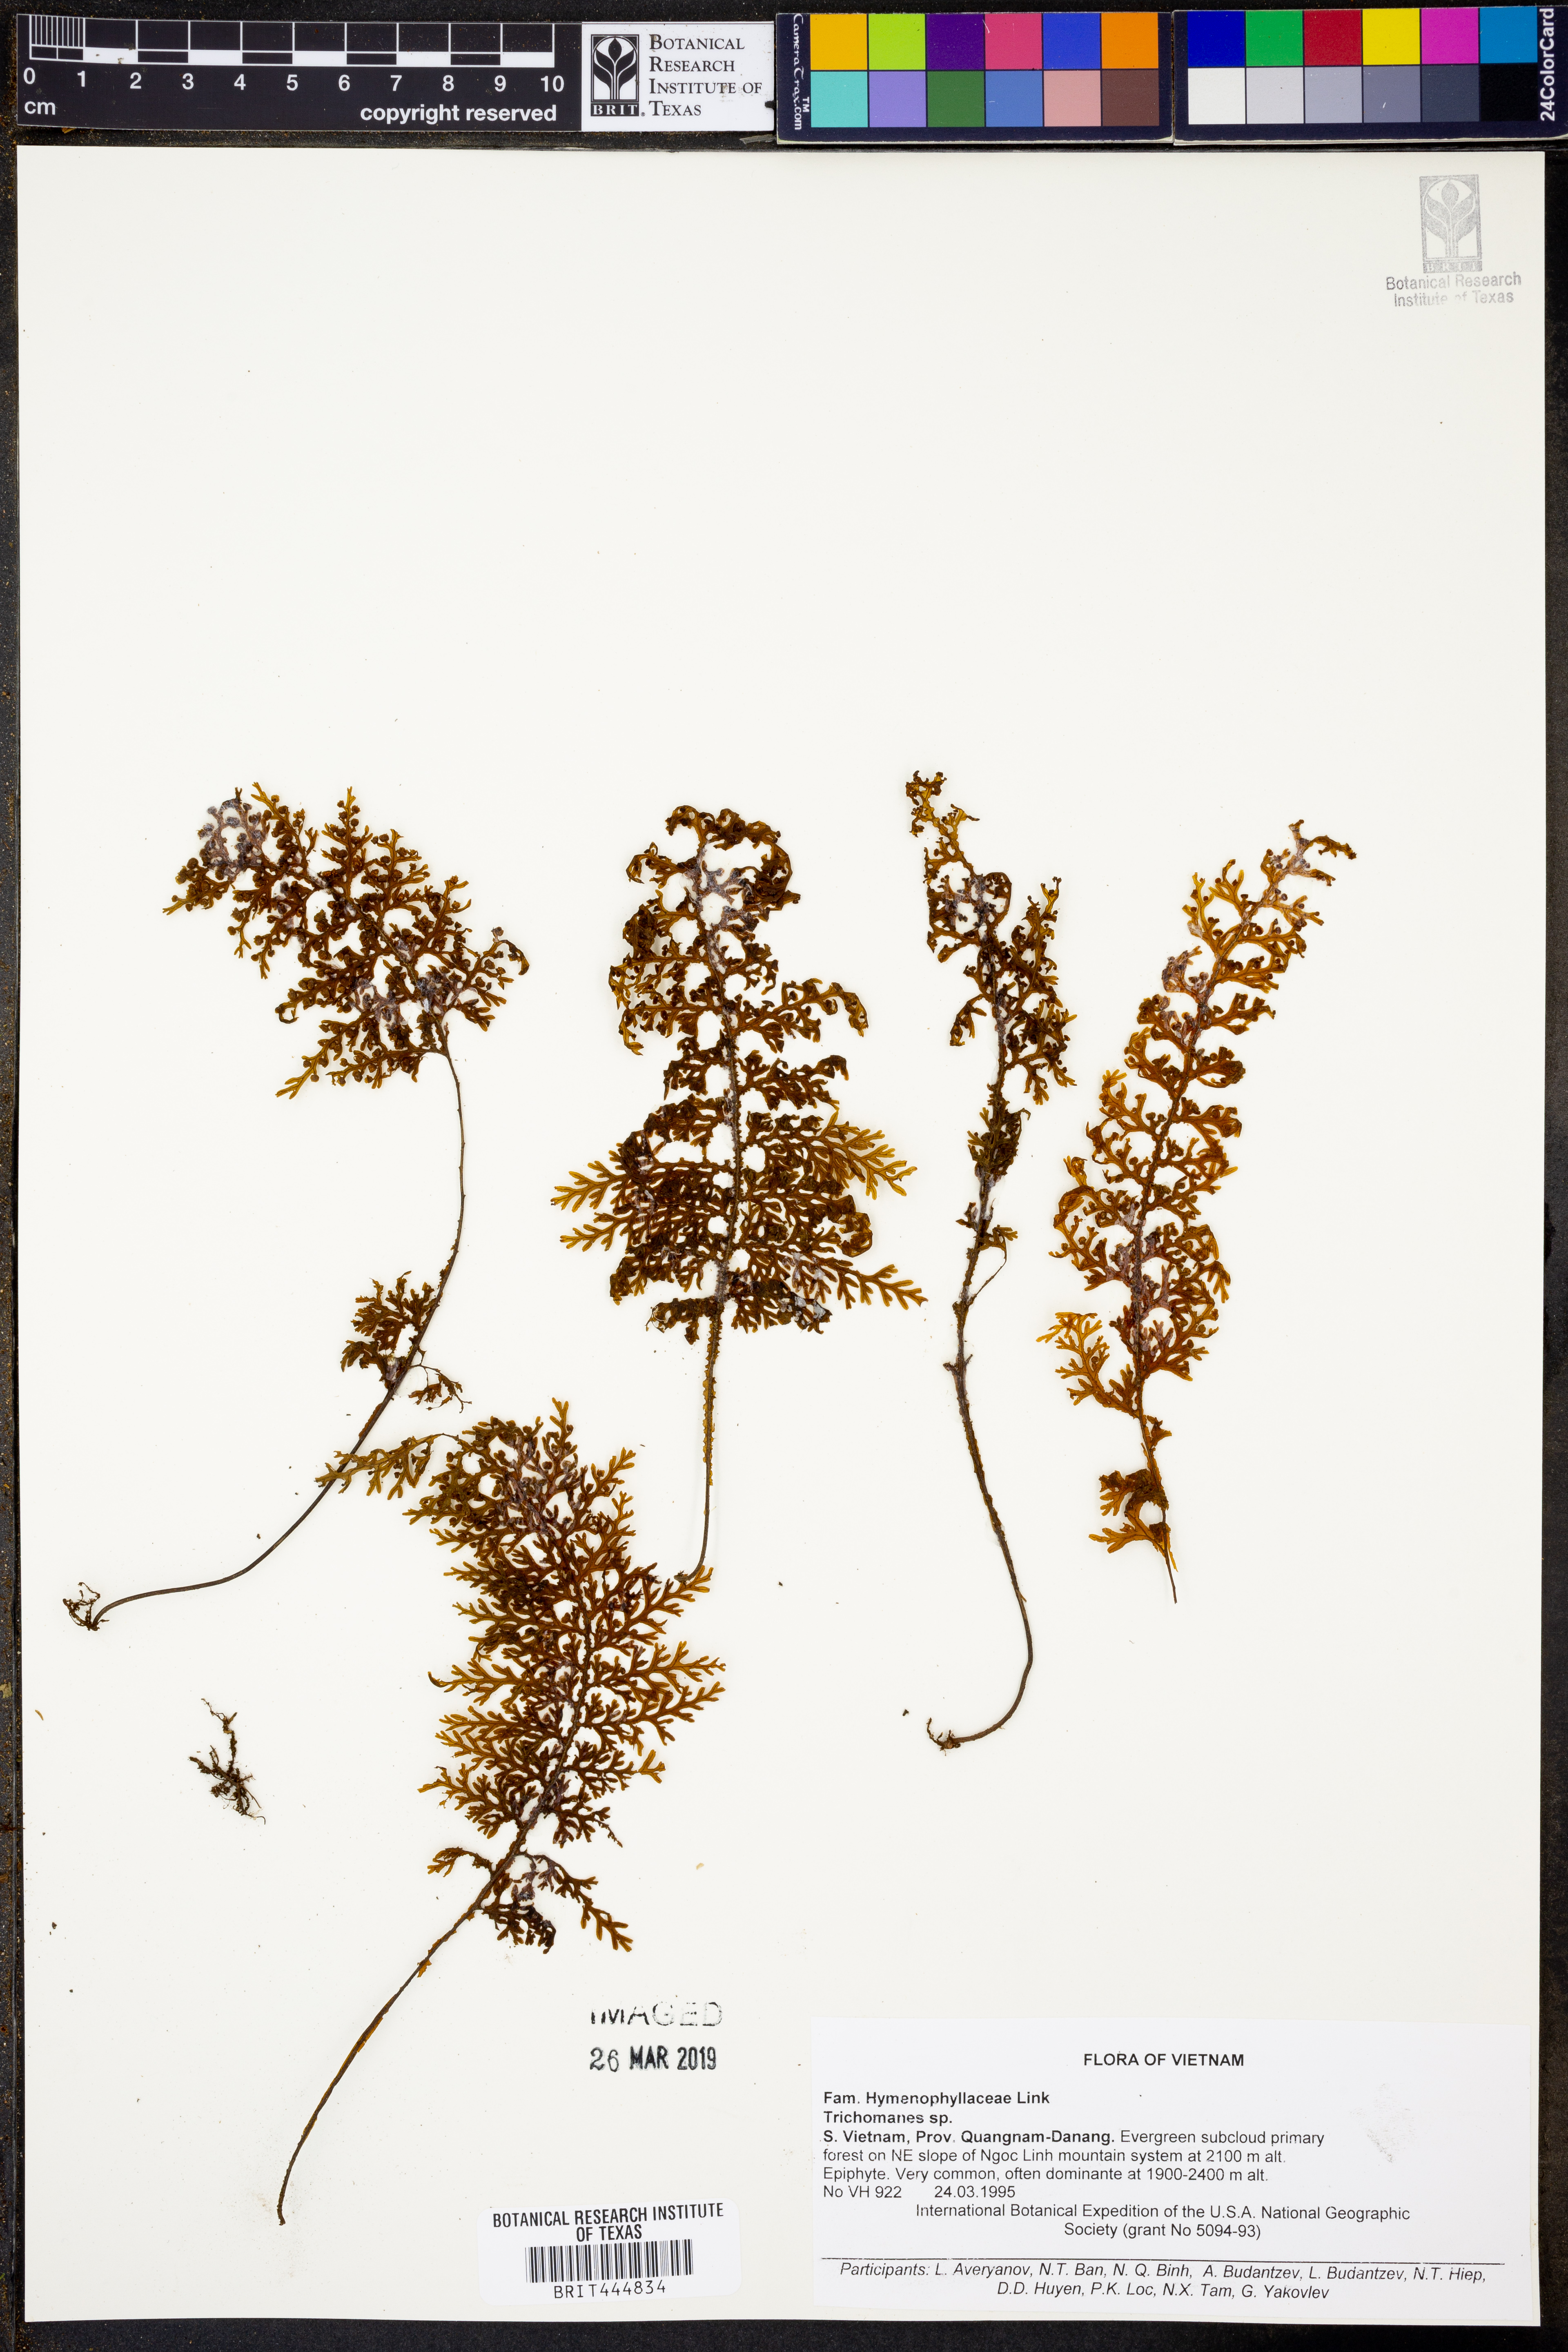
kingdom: Plantae
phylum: Tracheophyta
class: Polypodiopsida
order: Hymenophyllales
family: Hymenophyllaceae
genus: Trichomanes
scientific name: Trichomanes
